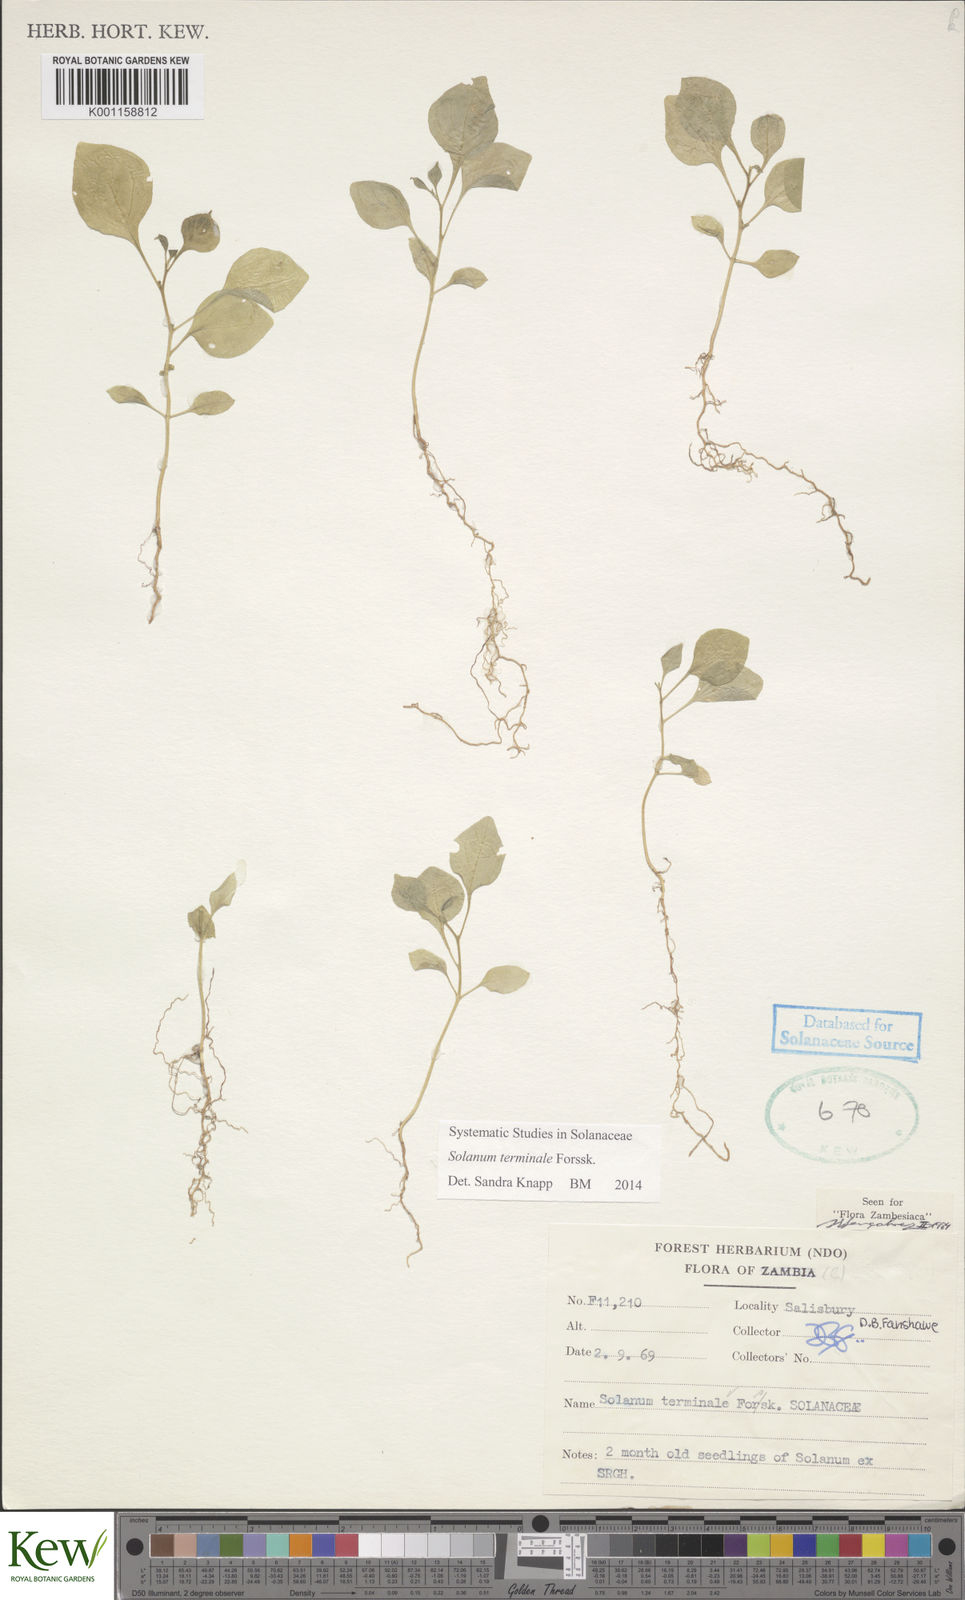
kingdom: Plantae
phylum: Tracheophyta
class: Magnoliopsida
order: Solanales
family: Solanaceae
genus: Solanum
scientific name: Solanum terminale
